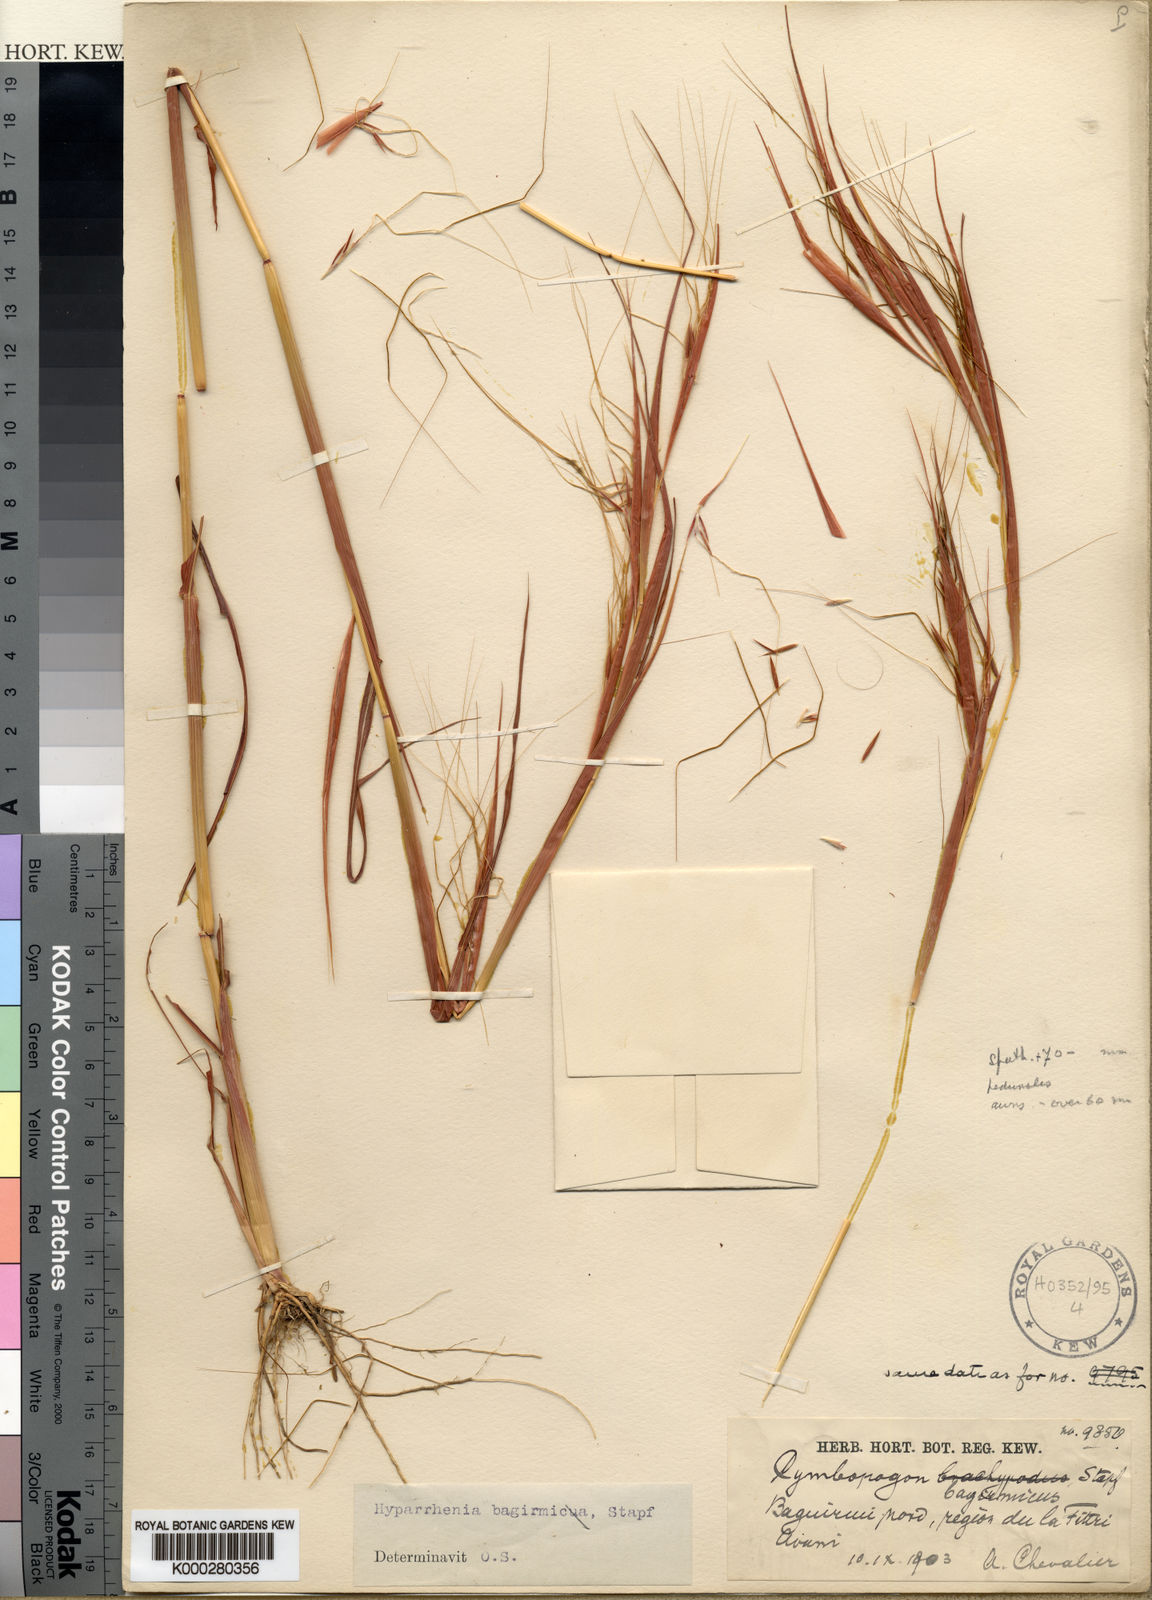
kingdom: Plantae
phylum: Tracheophyta
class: Liliopsida
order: Poales
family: Poaceae
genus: Hyparrhenia
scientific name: Hyparrhenia bagirmica
